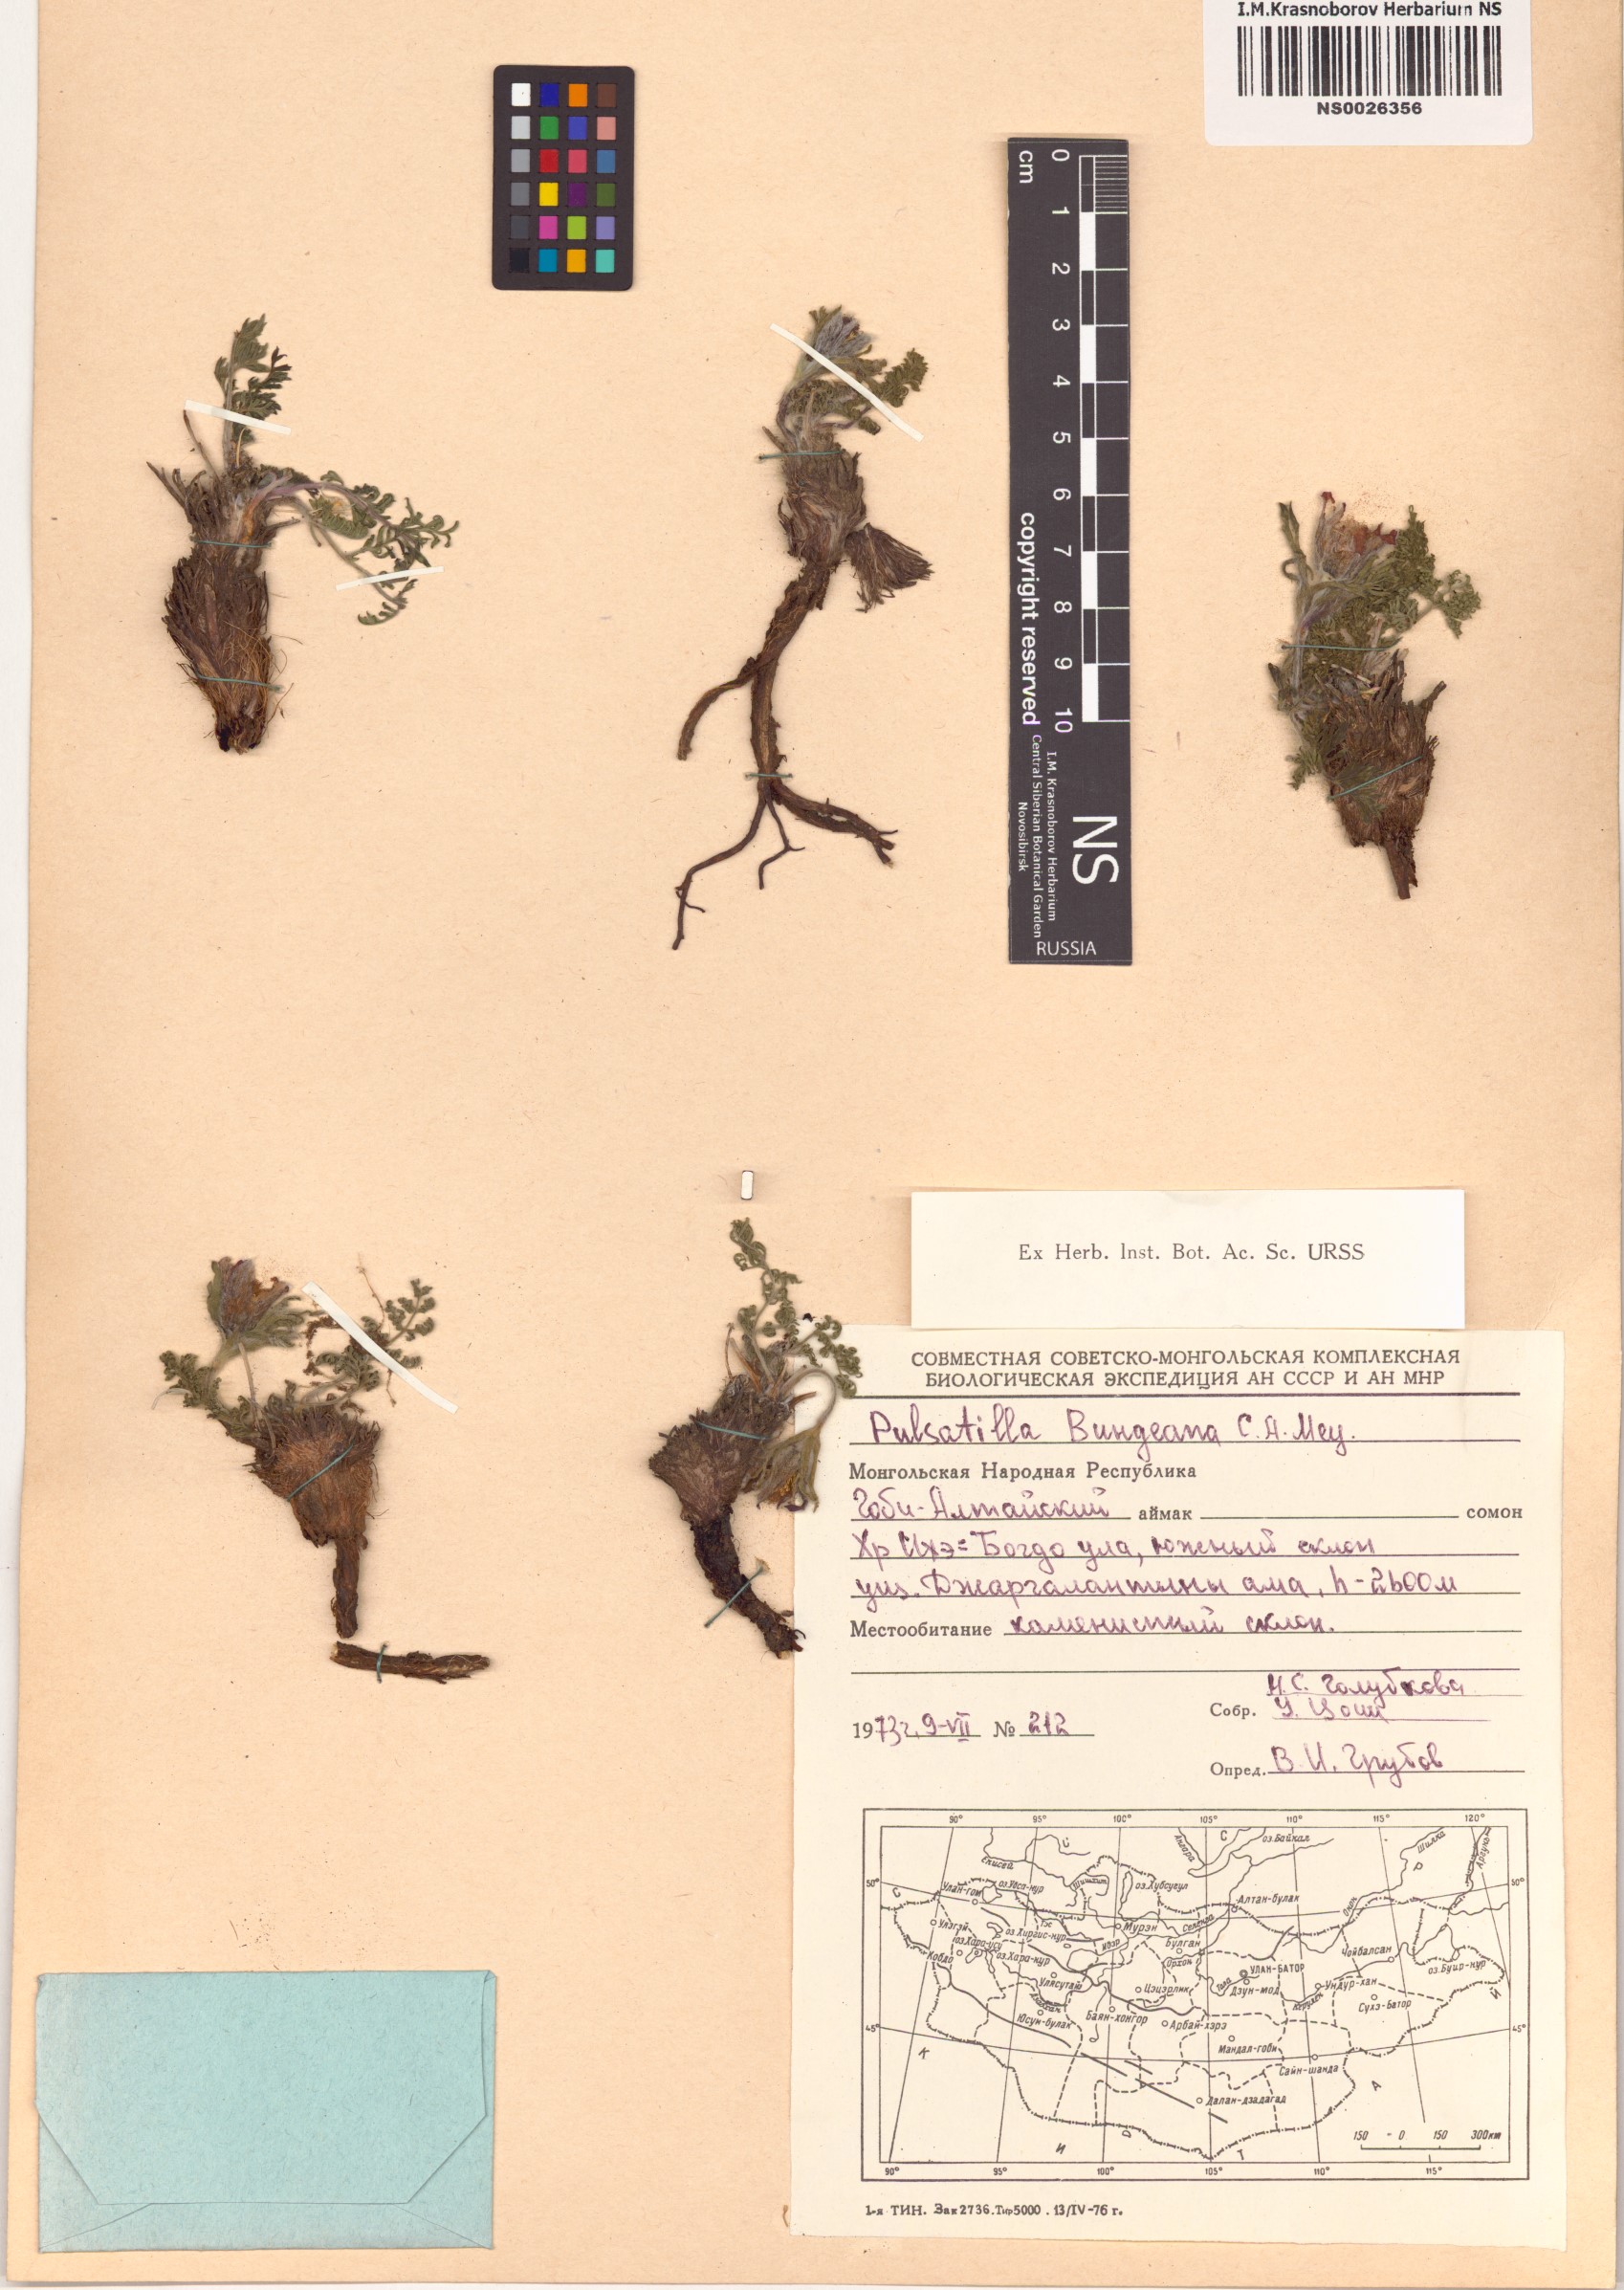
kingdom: Plantae
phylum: Tracheophyta
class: Magnoliopsida
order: Ranunculales
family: Ranunculaceae
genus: Pulsatilla
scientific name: Pulsatilla bungeana
